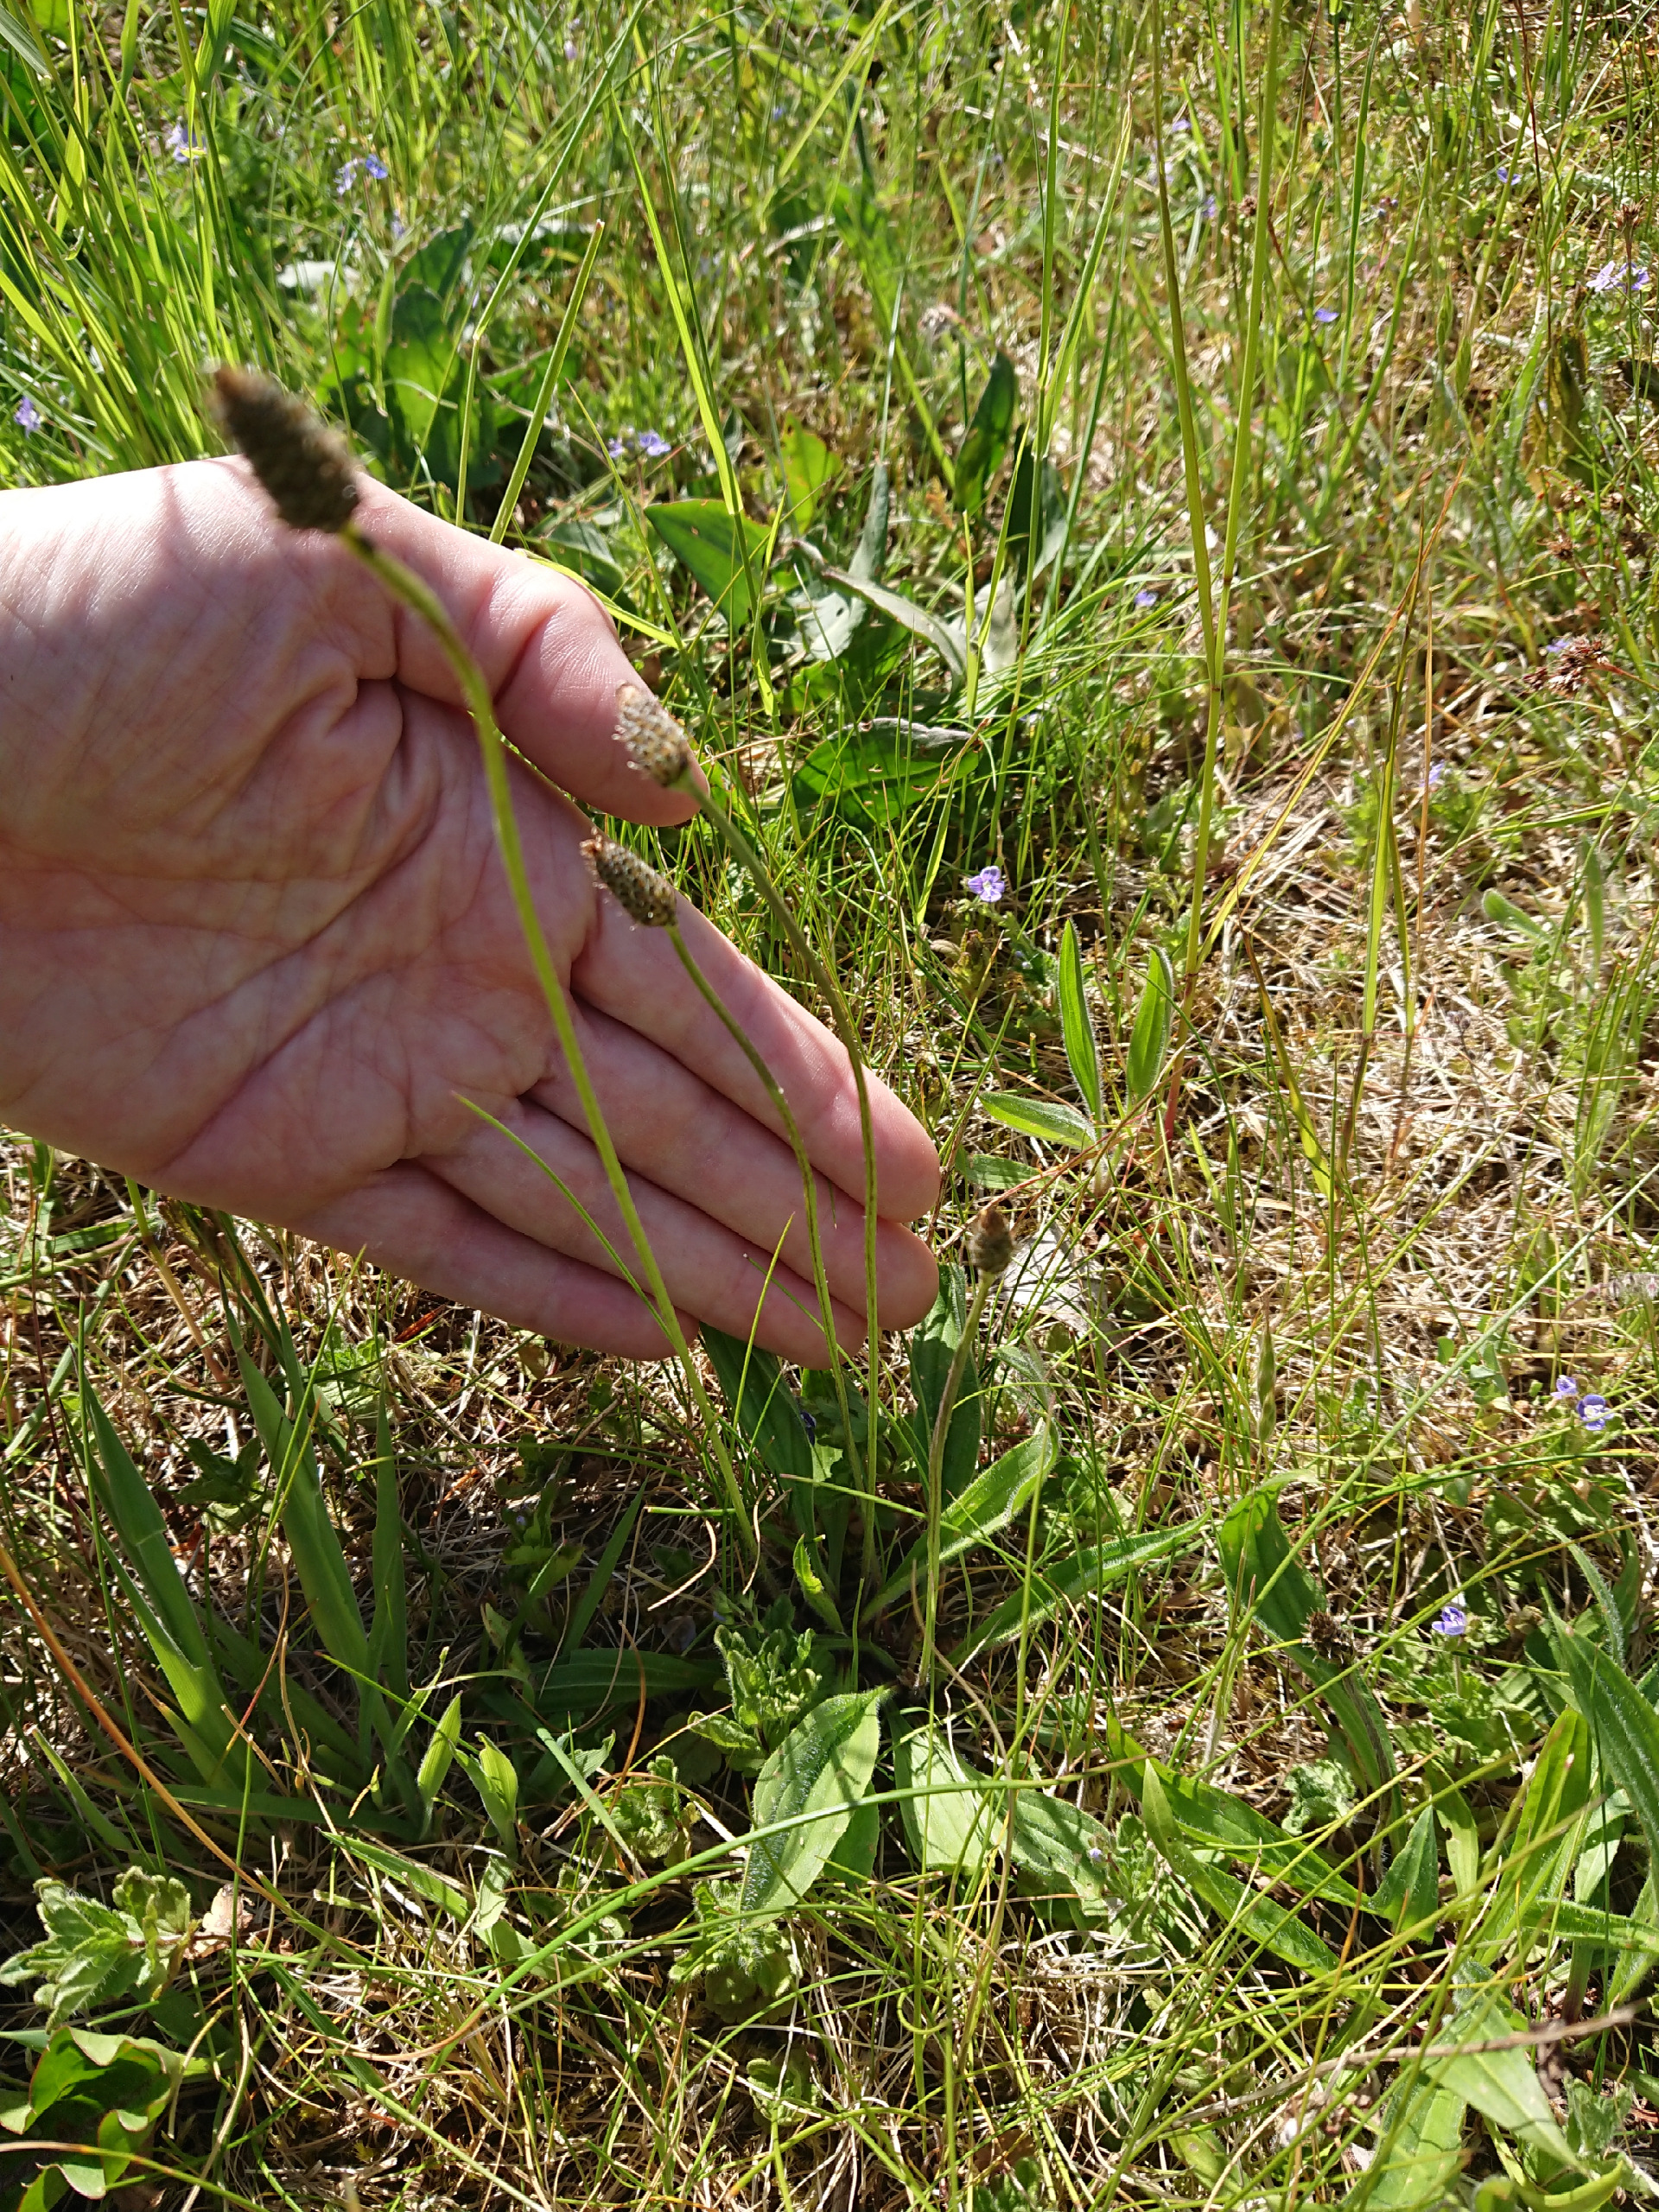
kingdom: Plantae
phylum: Tracheophyta
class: Magnoliopsida
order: Lamiales
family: Plantaginaceae
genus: Plantago
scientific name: Plantago lanceolata
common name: Lancet-vejbred
